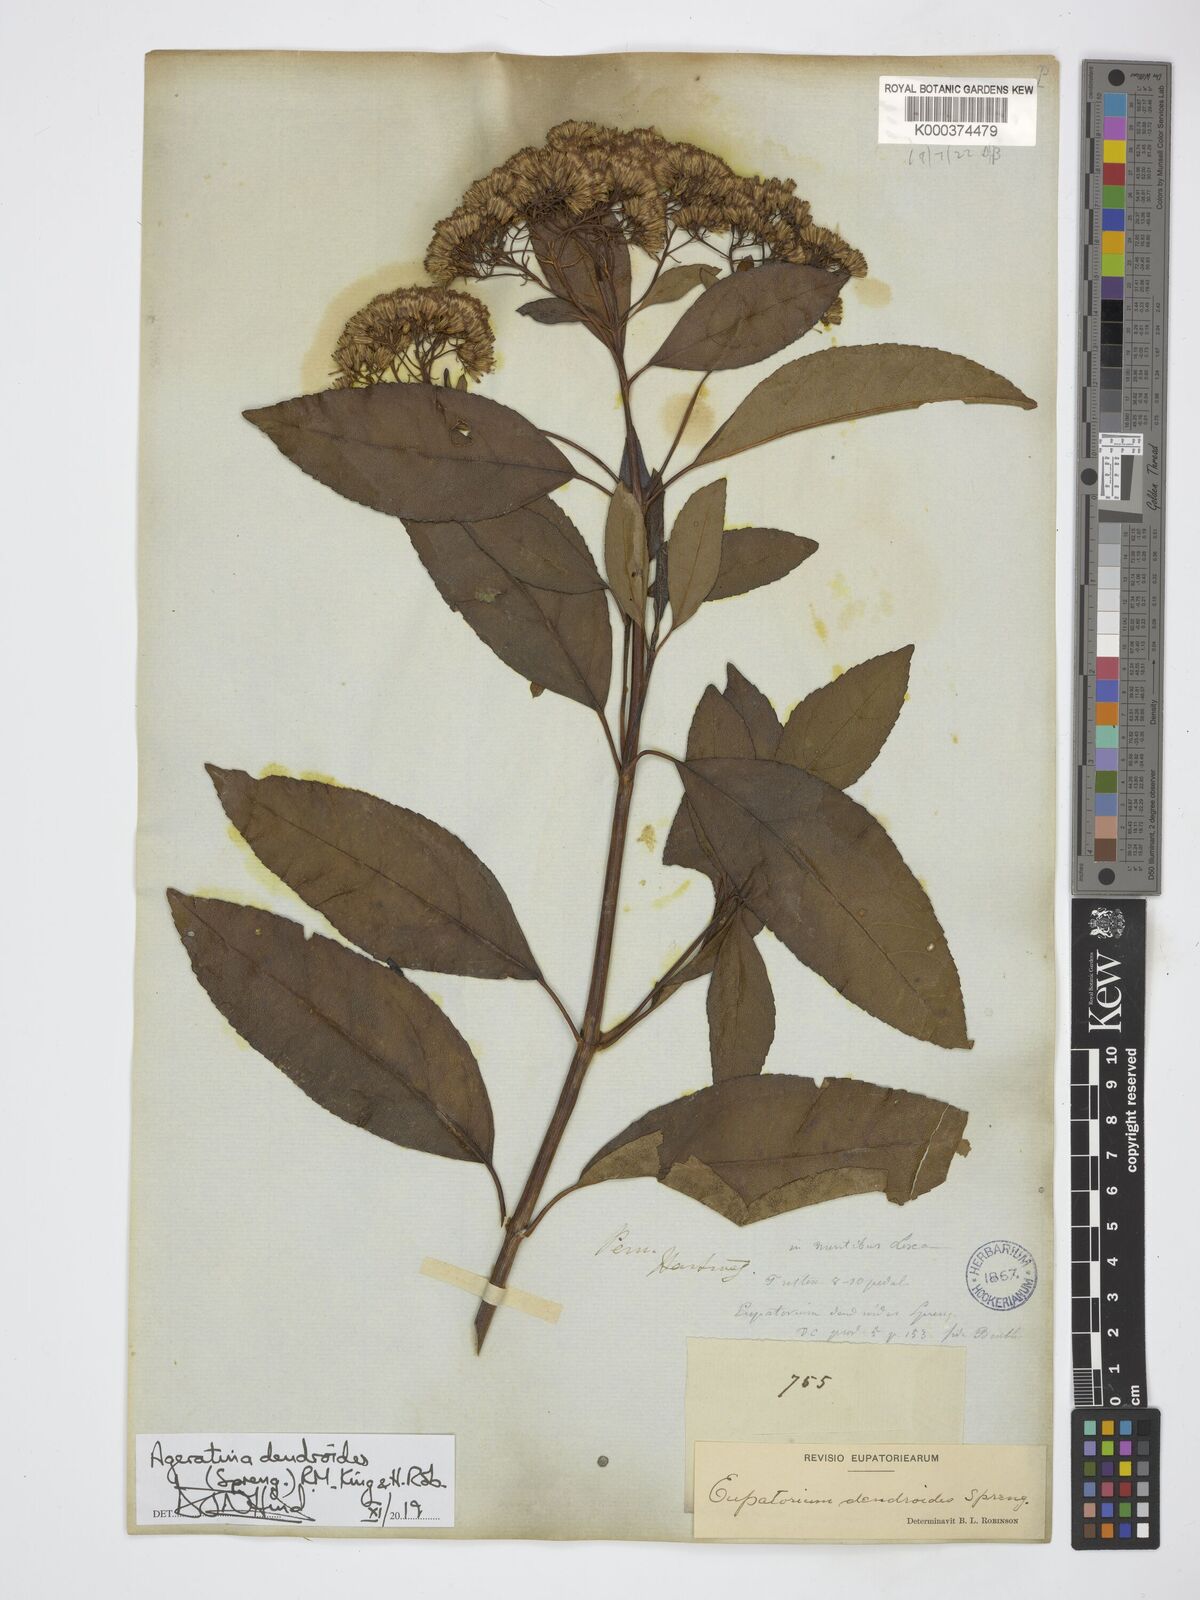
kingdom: Plantae
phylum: Tracheophyta
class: Magnoliopsida
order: Asterales
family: Asteraceae
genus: Raulinoreitzia
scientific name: Raulinoreitzia crenulata
